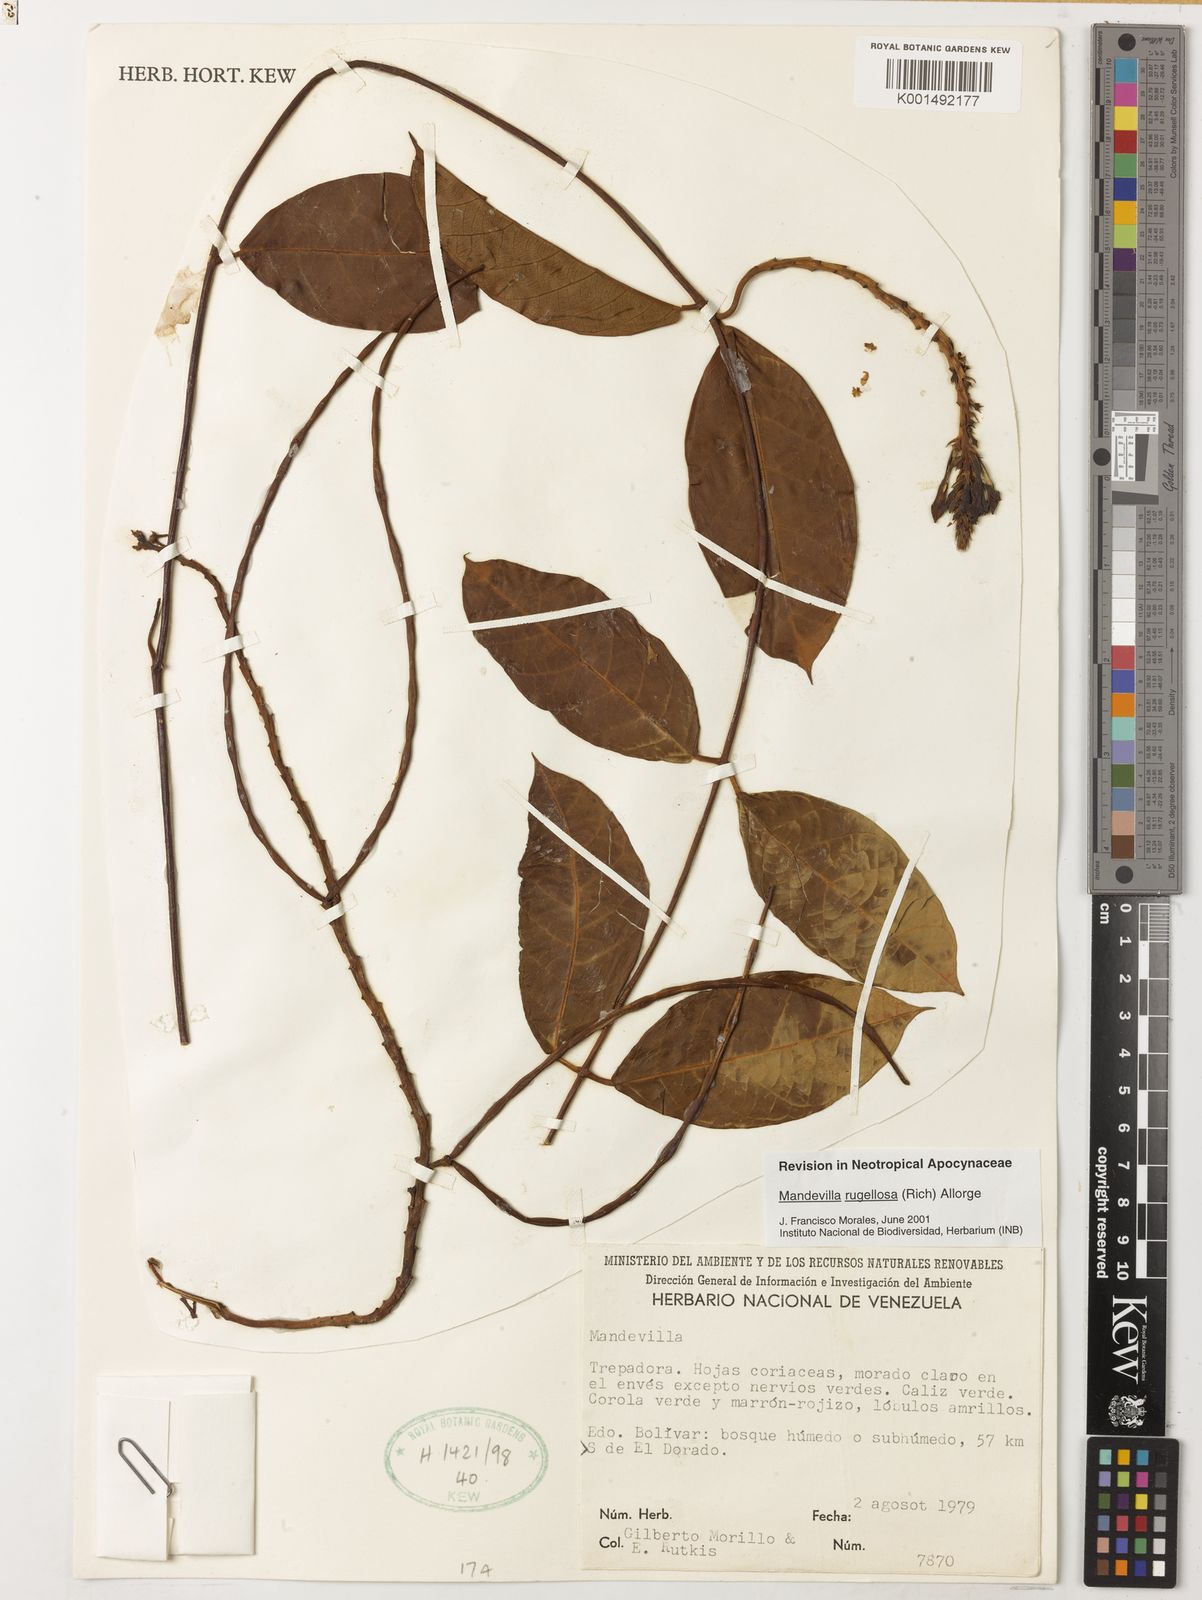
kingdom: Plantae
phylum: Tracheophyta
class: Magnoliopsida
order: Gentianales
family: Apocynaceae
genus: Mandevilla
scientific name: Mandevilla rugellosa
